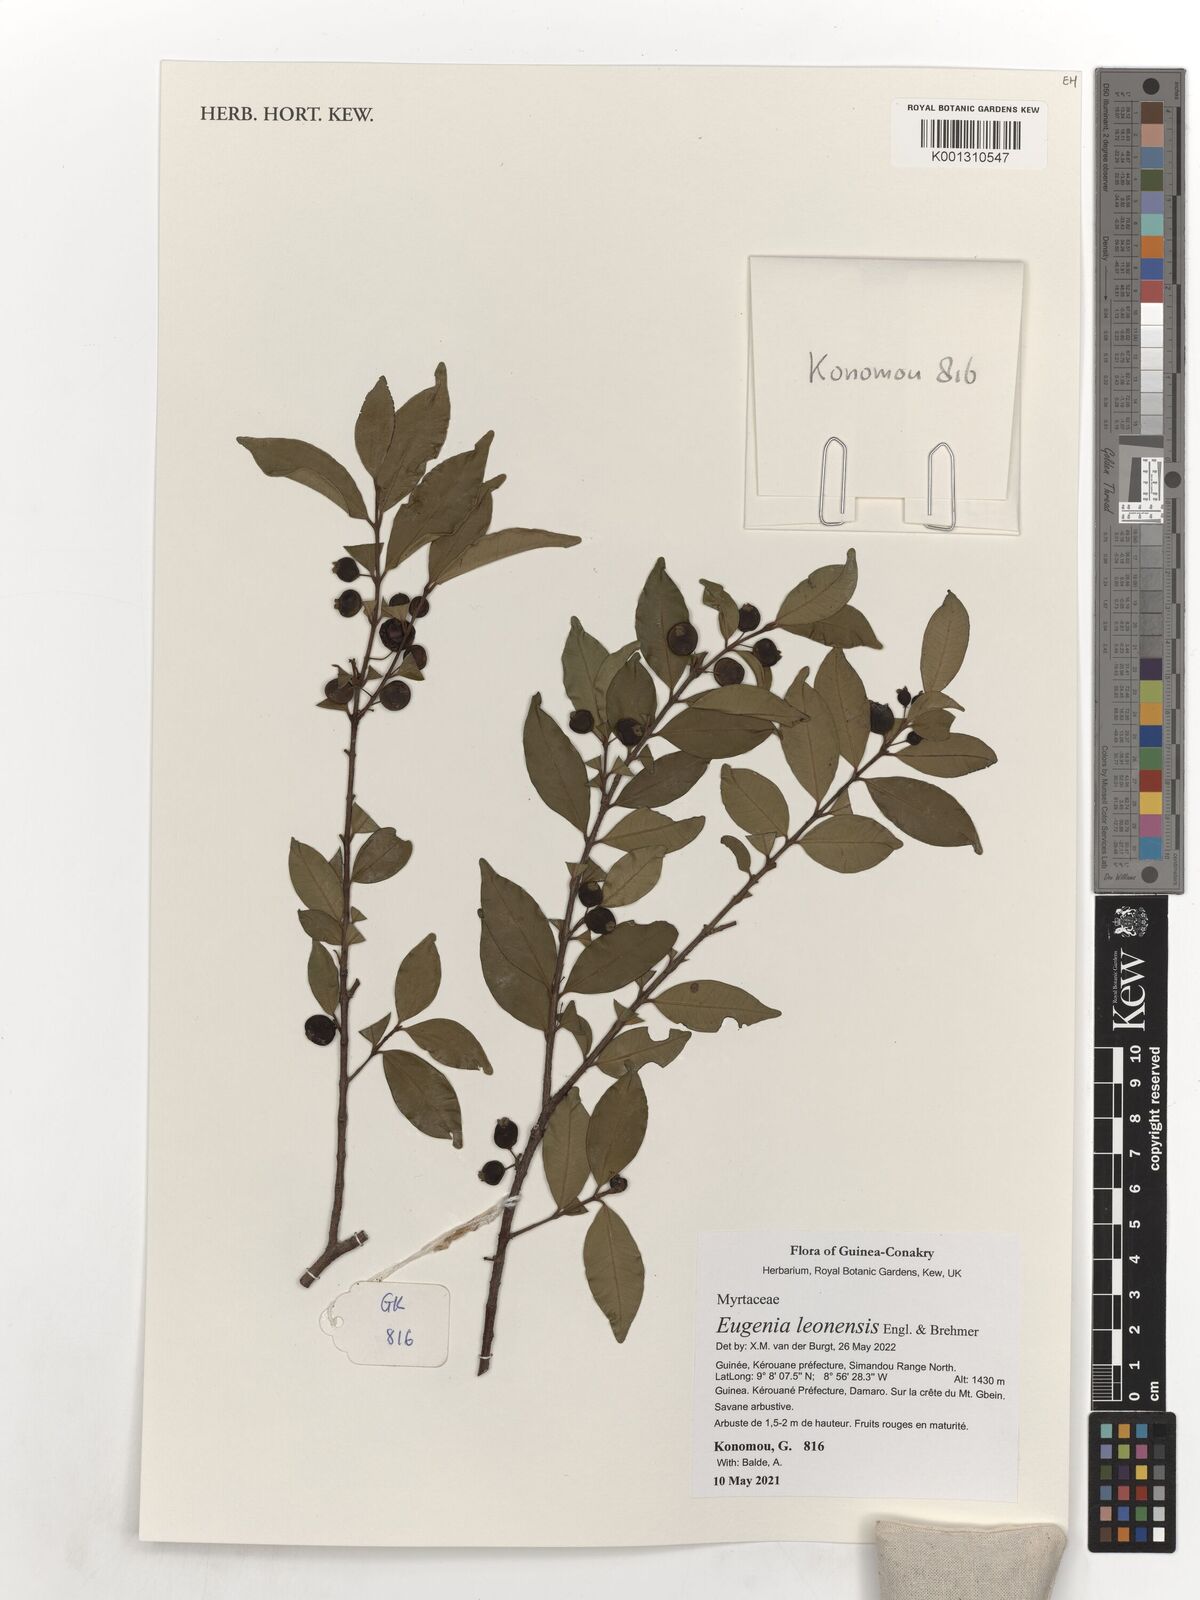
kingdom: Plantae
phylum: Tracheophyta
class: Magnoliopsida
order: Myrtales
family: Myrtaceae
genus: Eugenia
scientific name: Eugenia leonensis
